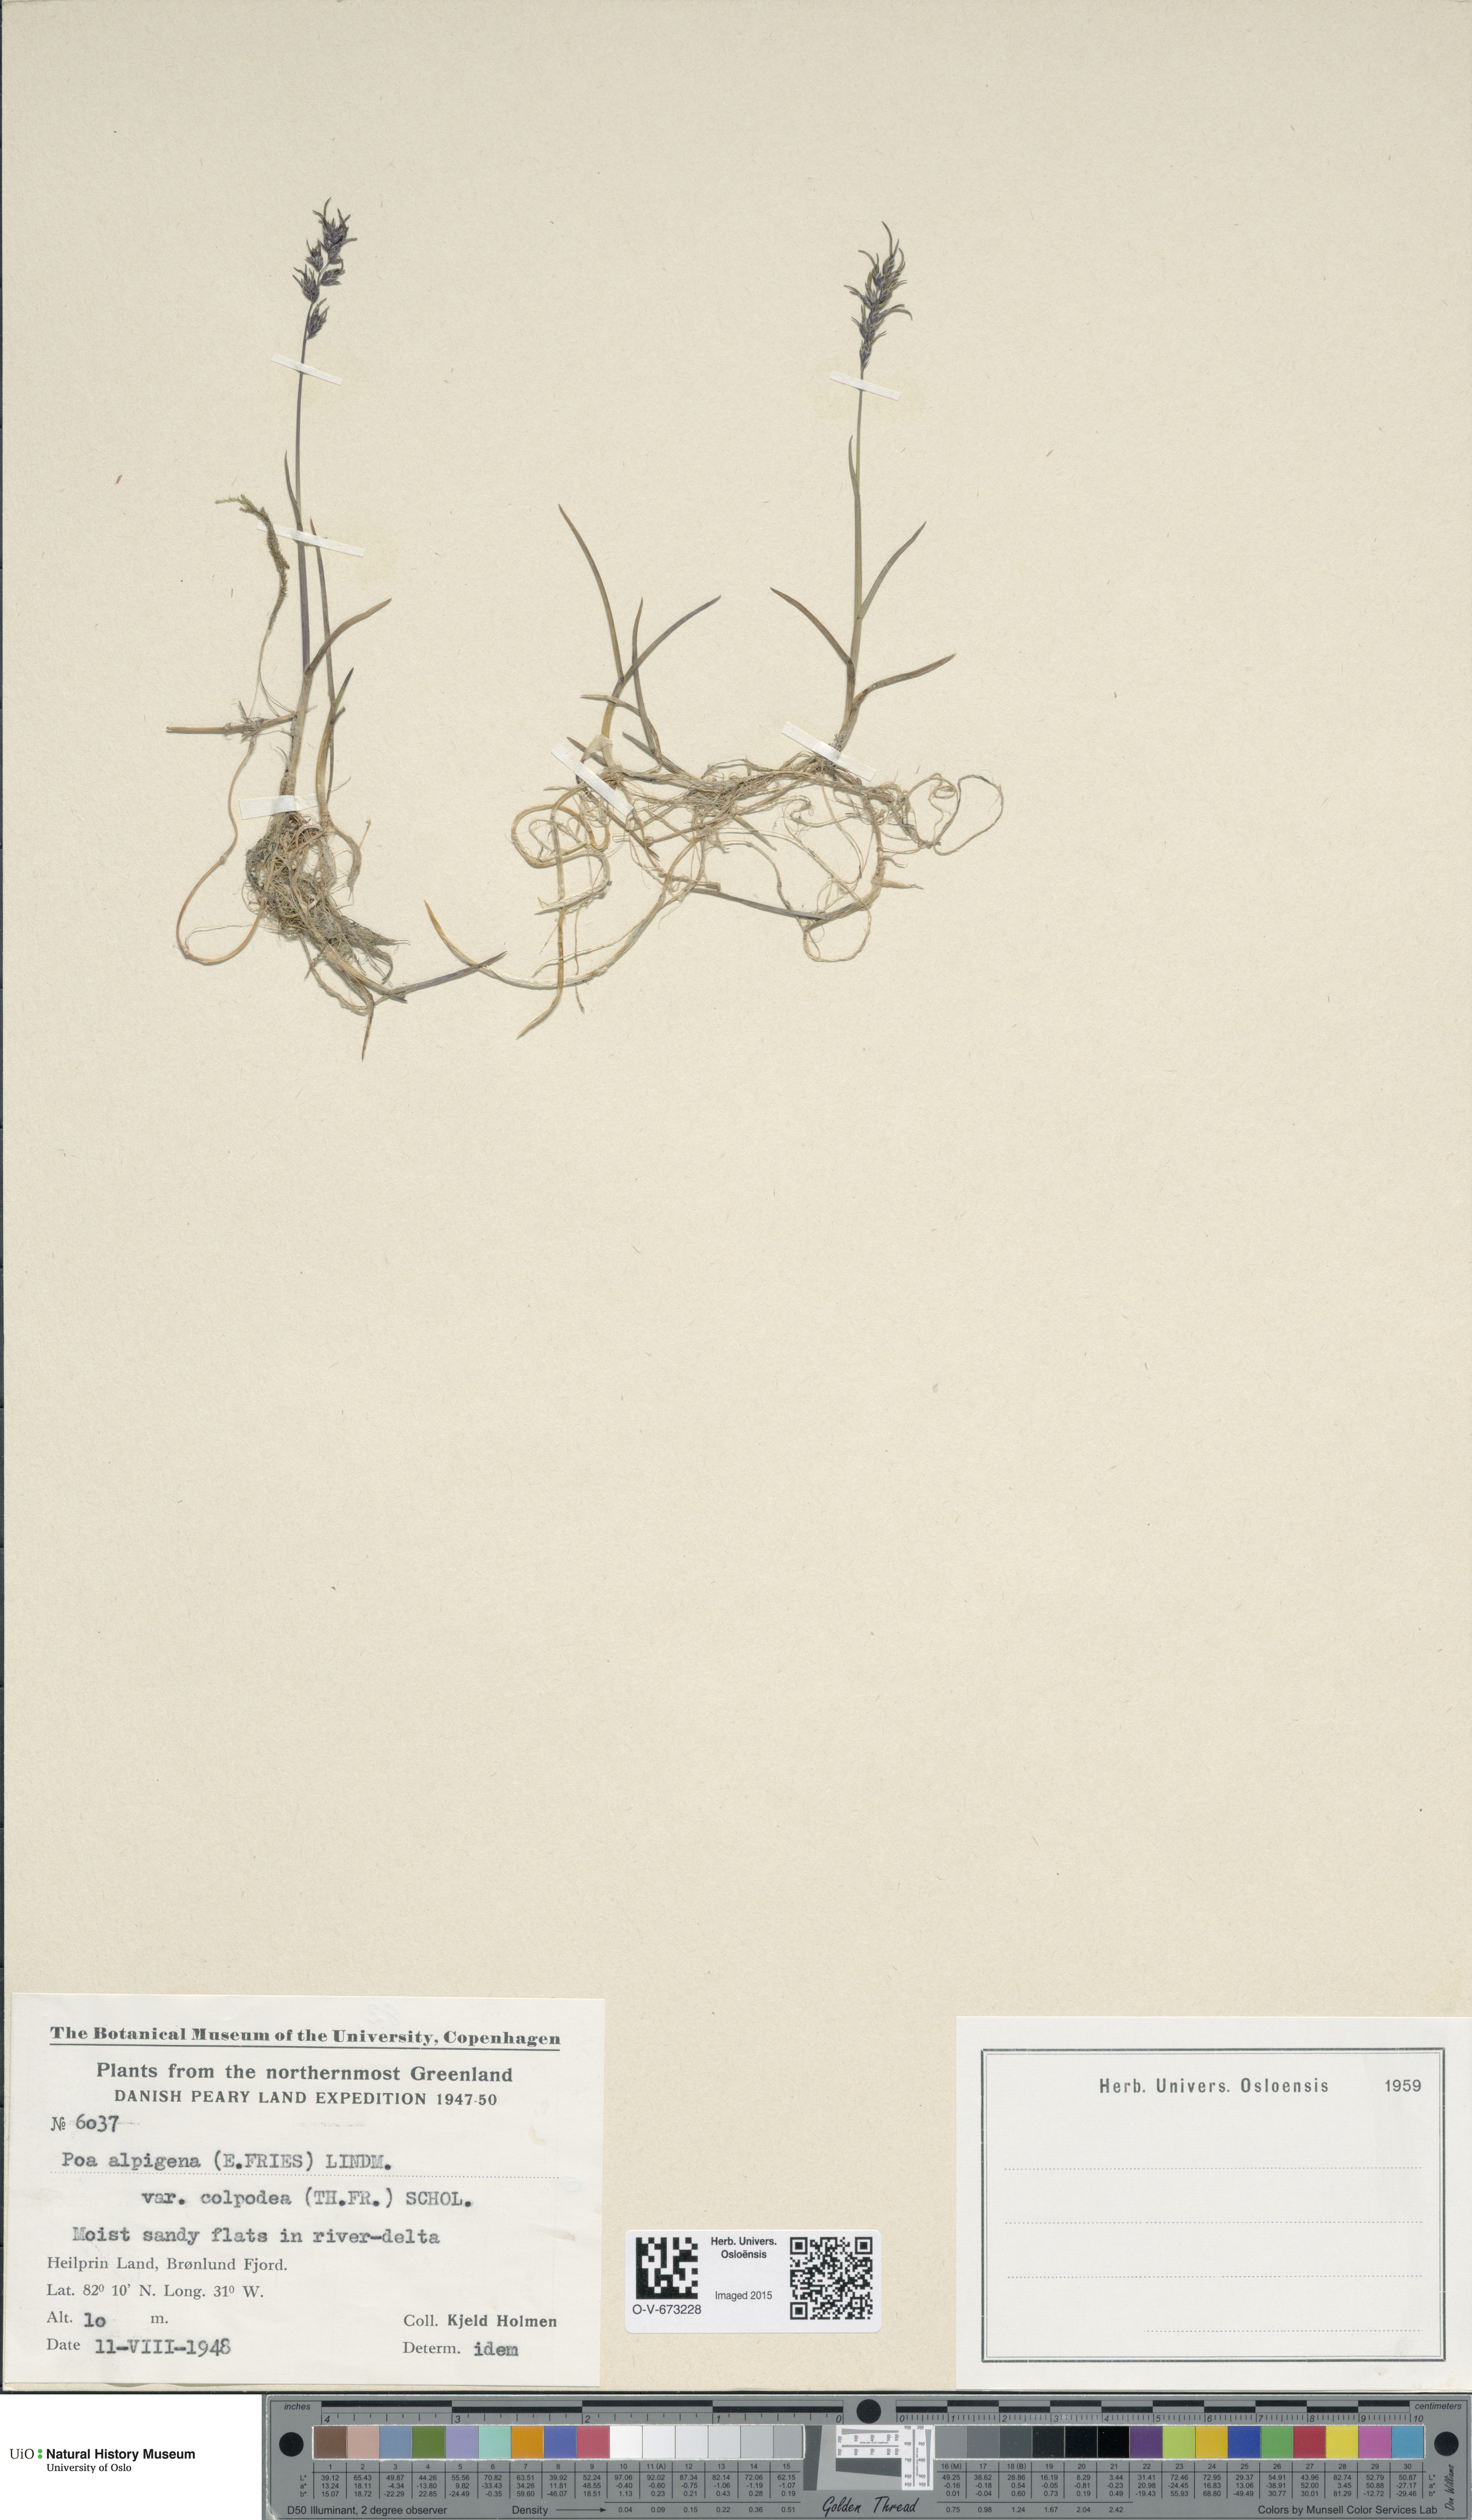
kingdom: Plantae
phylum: Tracheophyta
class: Liliopsida
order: Poales
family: Poaceae
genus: Poa
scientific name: Poa alpigena
